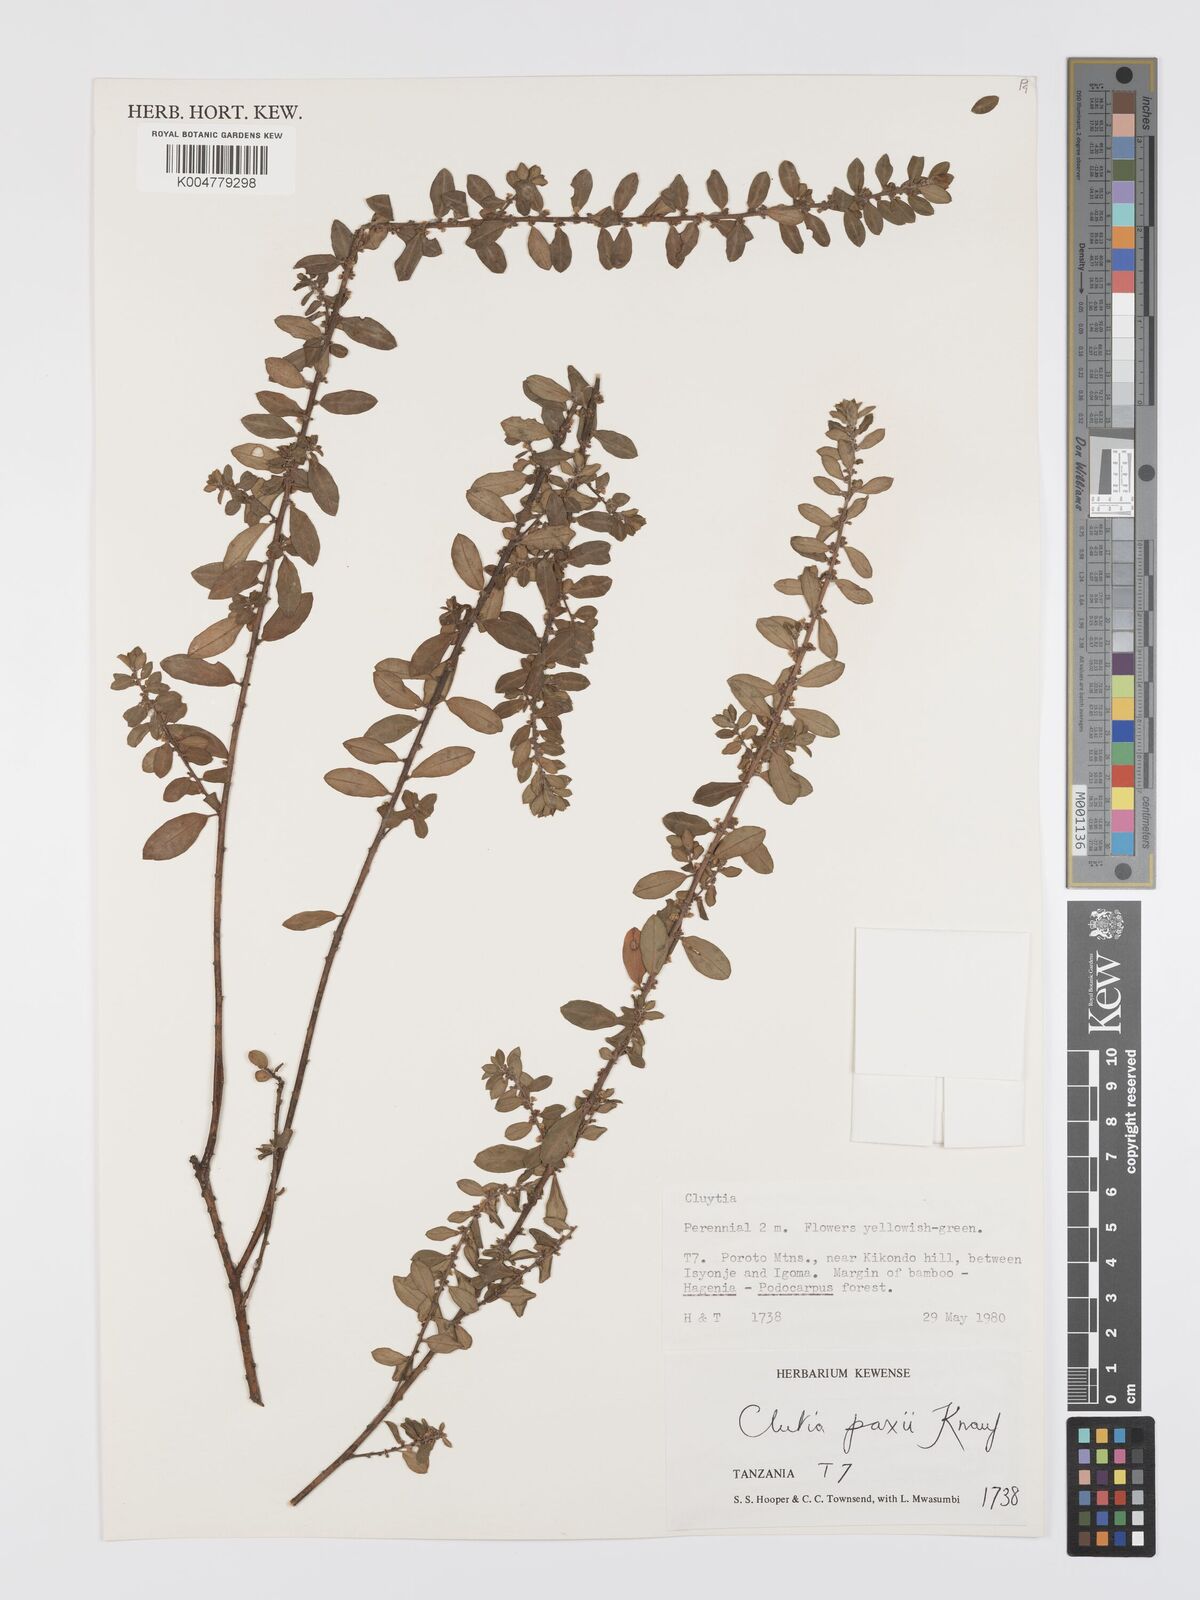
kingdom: Plantae
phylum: Tracheophyta
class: Magnoliopsida
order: Malpighiales
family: Peraceae
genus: Clutia
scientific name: Clutia paxii
